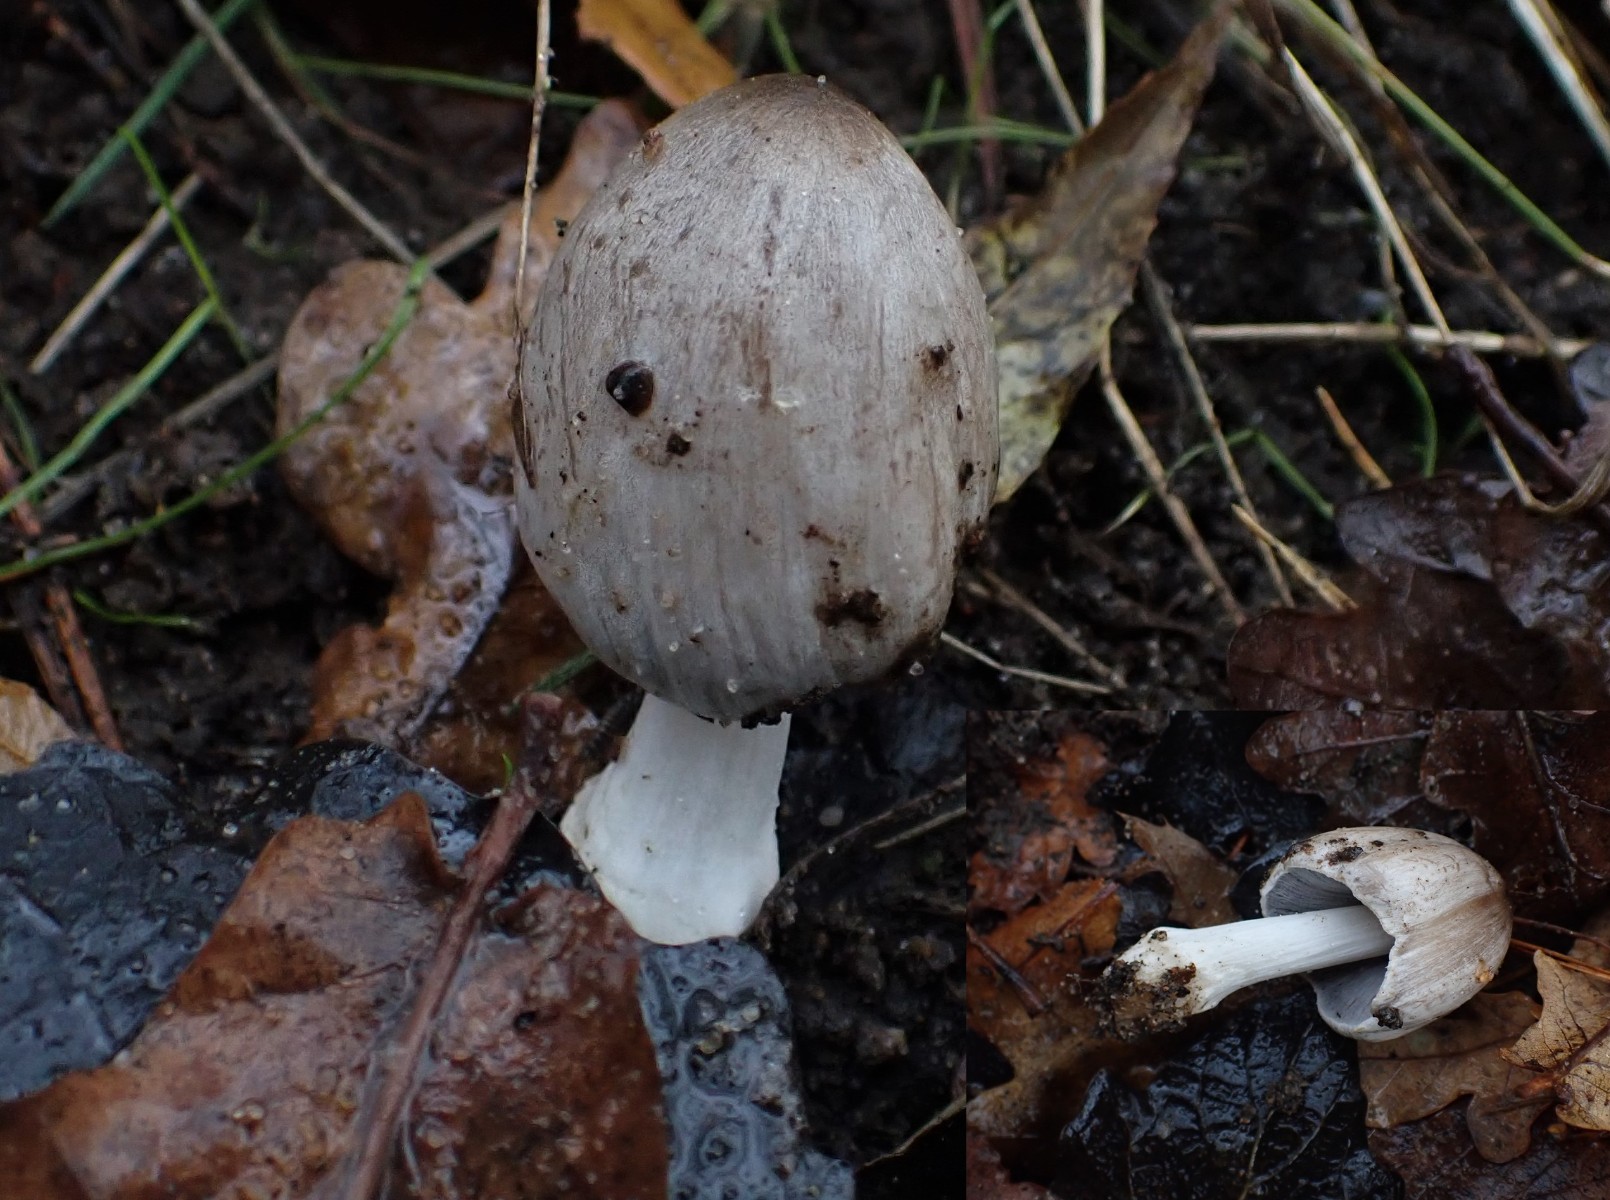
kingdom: Fungi
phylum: Basidiomycota
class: Agaricomycetes
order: Agaricales
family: Psathyrellaceae
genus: Coprinopsis
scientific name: Coprinopsis atramentaria
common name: almindelig blækhat
